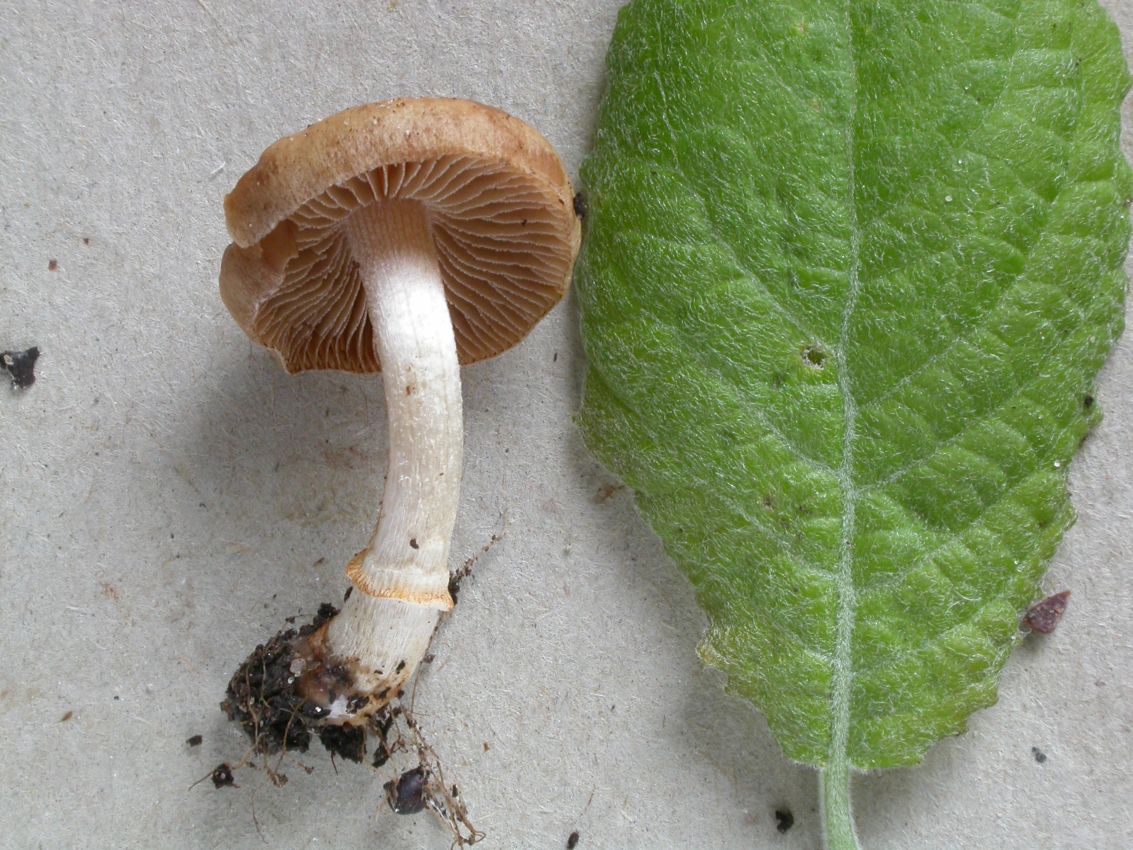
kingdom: Fungi
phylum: Basidiomycota
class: Agaricomycetes
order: Agaricales
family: Bolbitiaceae
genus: Conocybe
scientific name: Conocybe aporos
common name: tidlig dansehat
